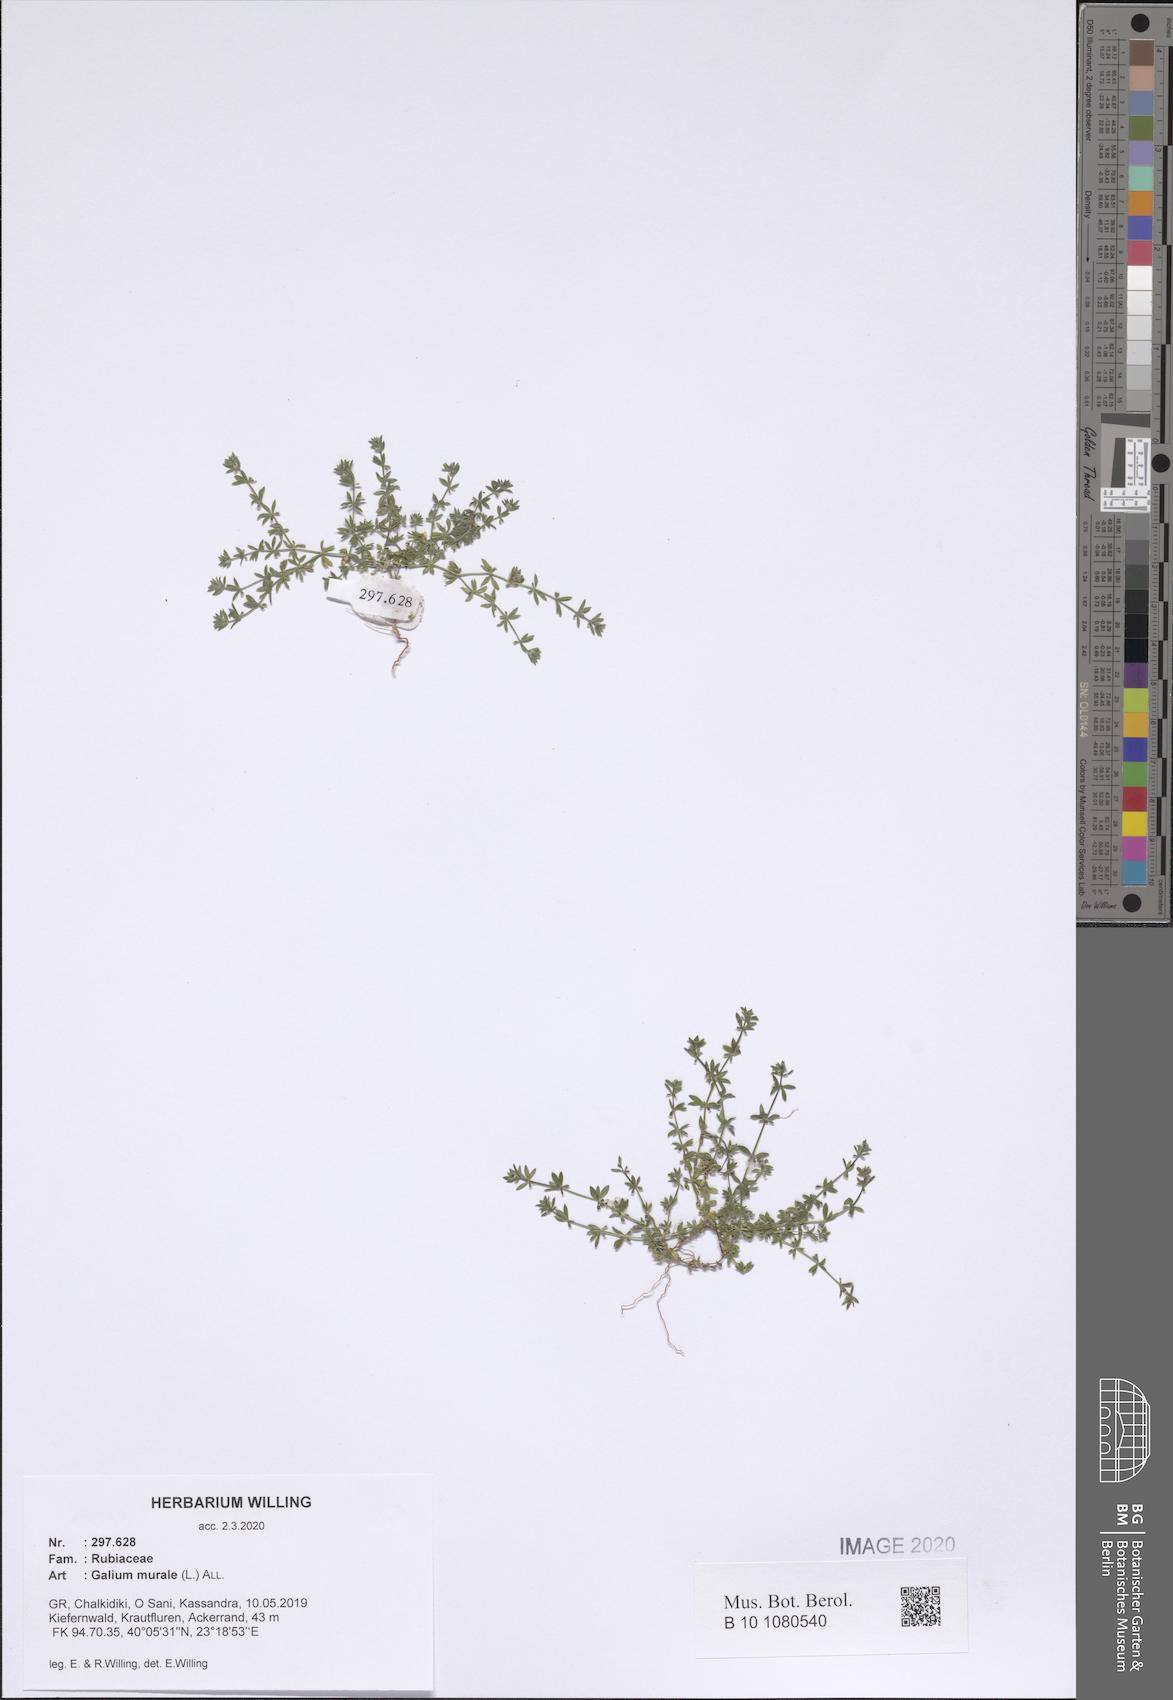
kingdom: Plantae
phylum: Tracheophyta
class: Magnoliopsida
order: Gentianales
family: Rubiaceae
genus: Galium
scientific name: Galium murale
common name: Yellow wall bedstraw
